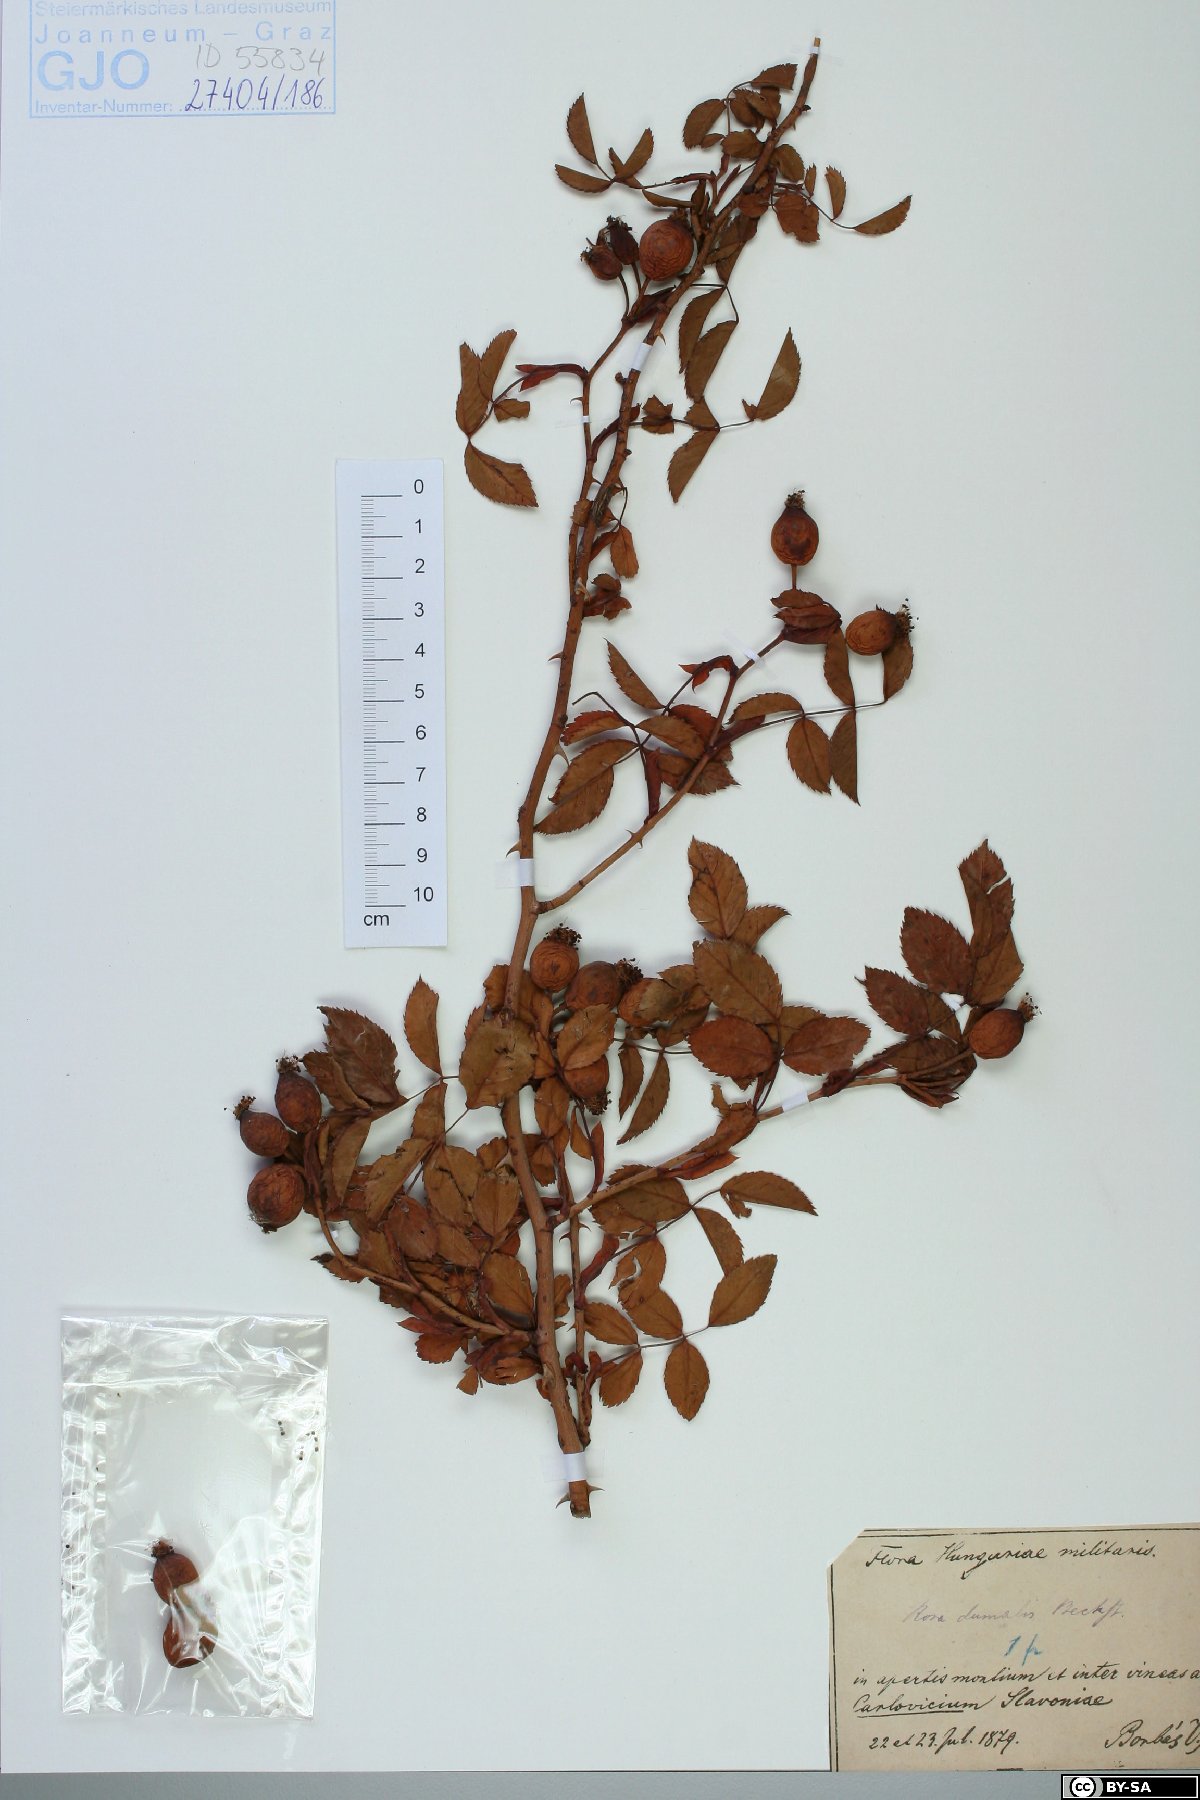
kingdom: Plantae
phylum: Tracheophyta
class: Magnoliopsida
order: Rosales
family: Rosaceae
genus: Rosa
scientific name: Rosa dumalis
